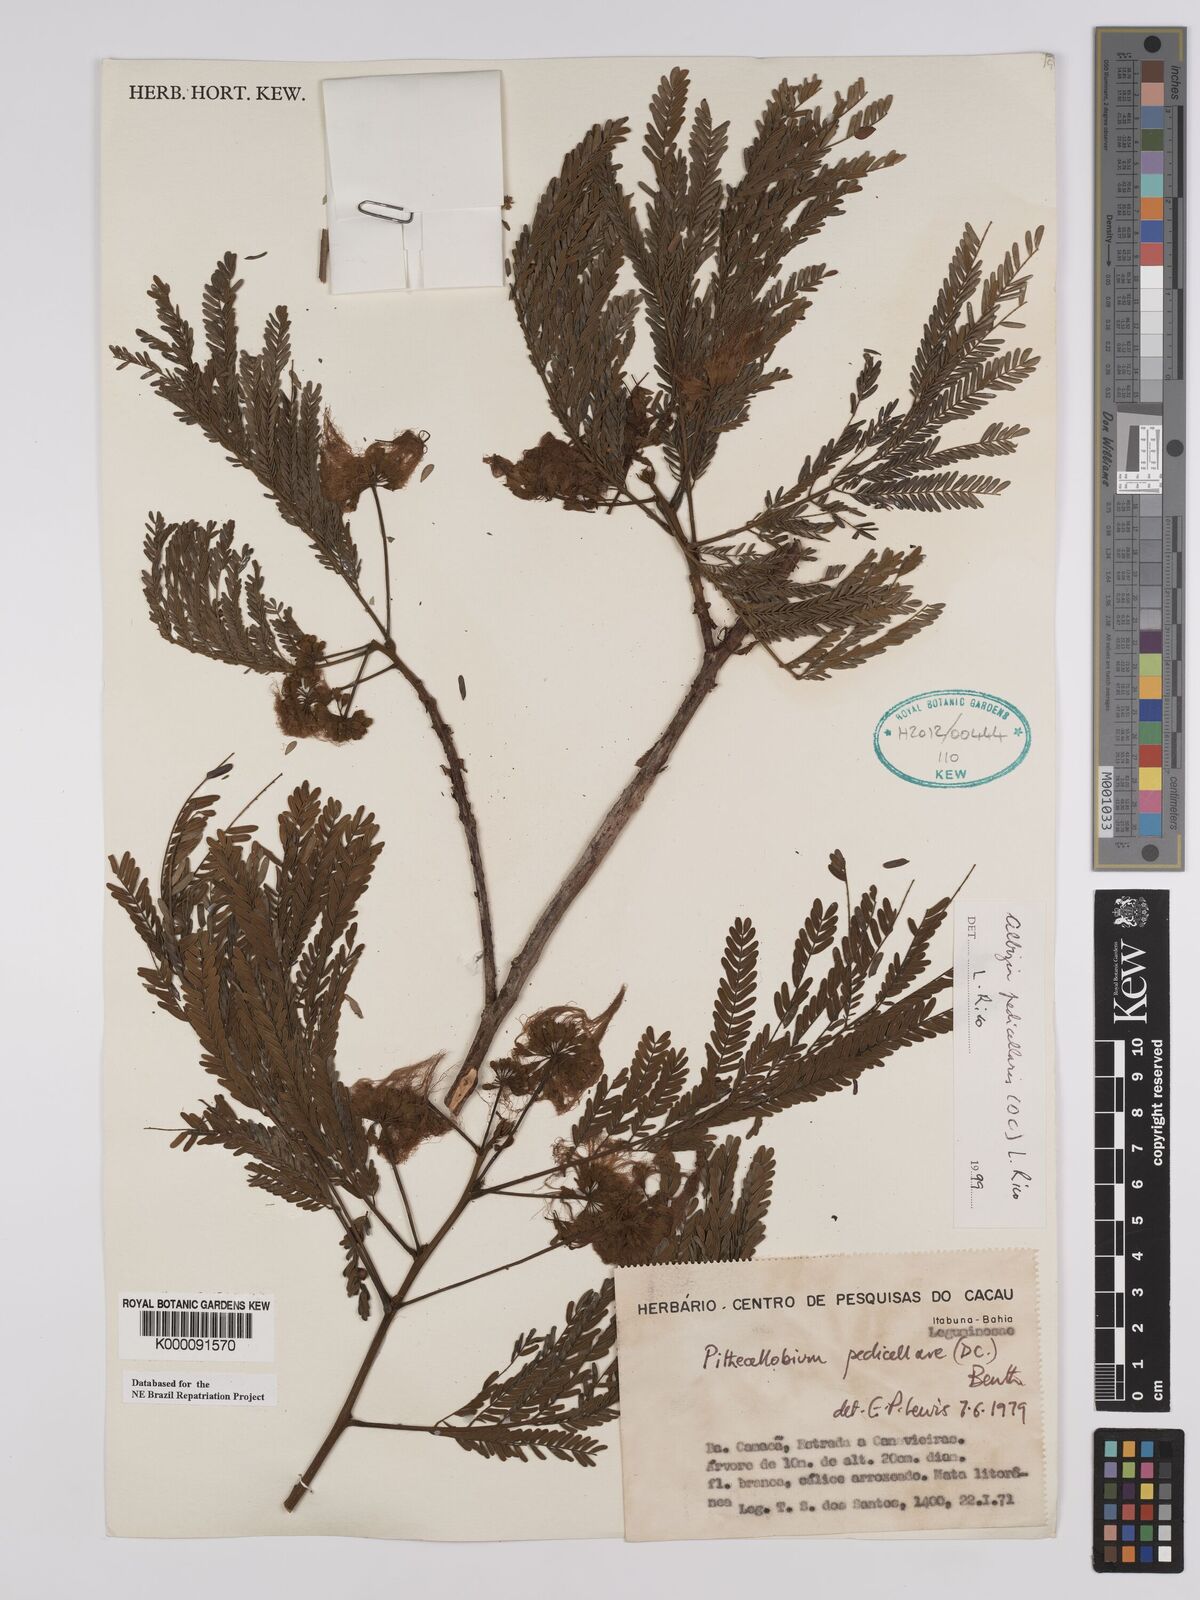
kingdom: Plantae
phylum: Tracheophyta
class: Magnoliopsida
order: Fabales
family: Fabaceae
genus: Balizia
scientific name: Balizia pedicellaris
